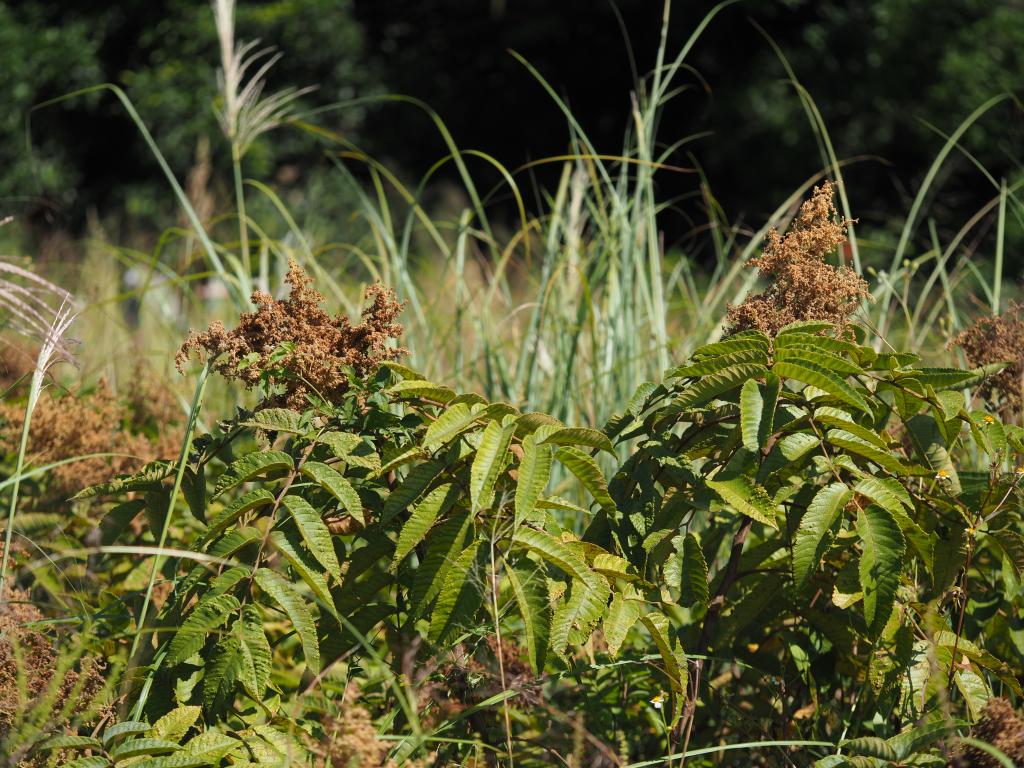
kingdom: Plantae
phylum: Tracheophyta
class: Magnoliopsida
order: Sapindales
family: Anacardiaceae
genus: Rhus
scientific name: Rhus chinensis
